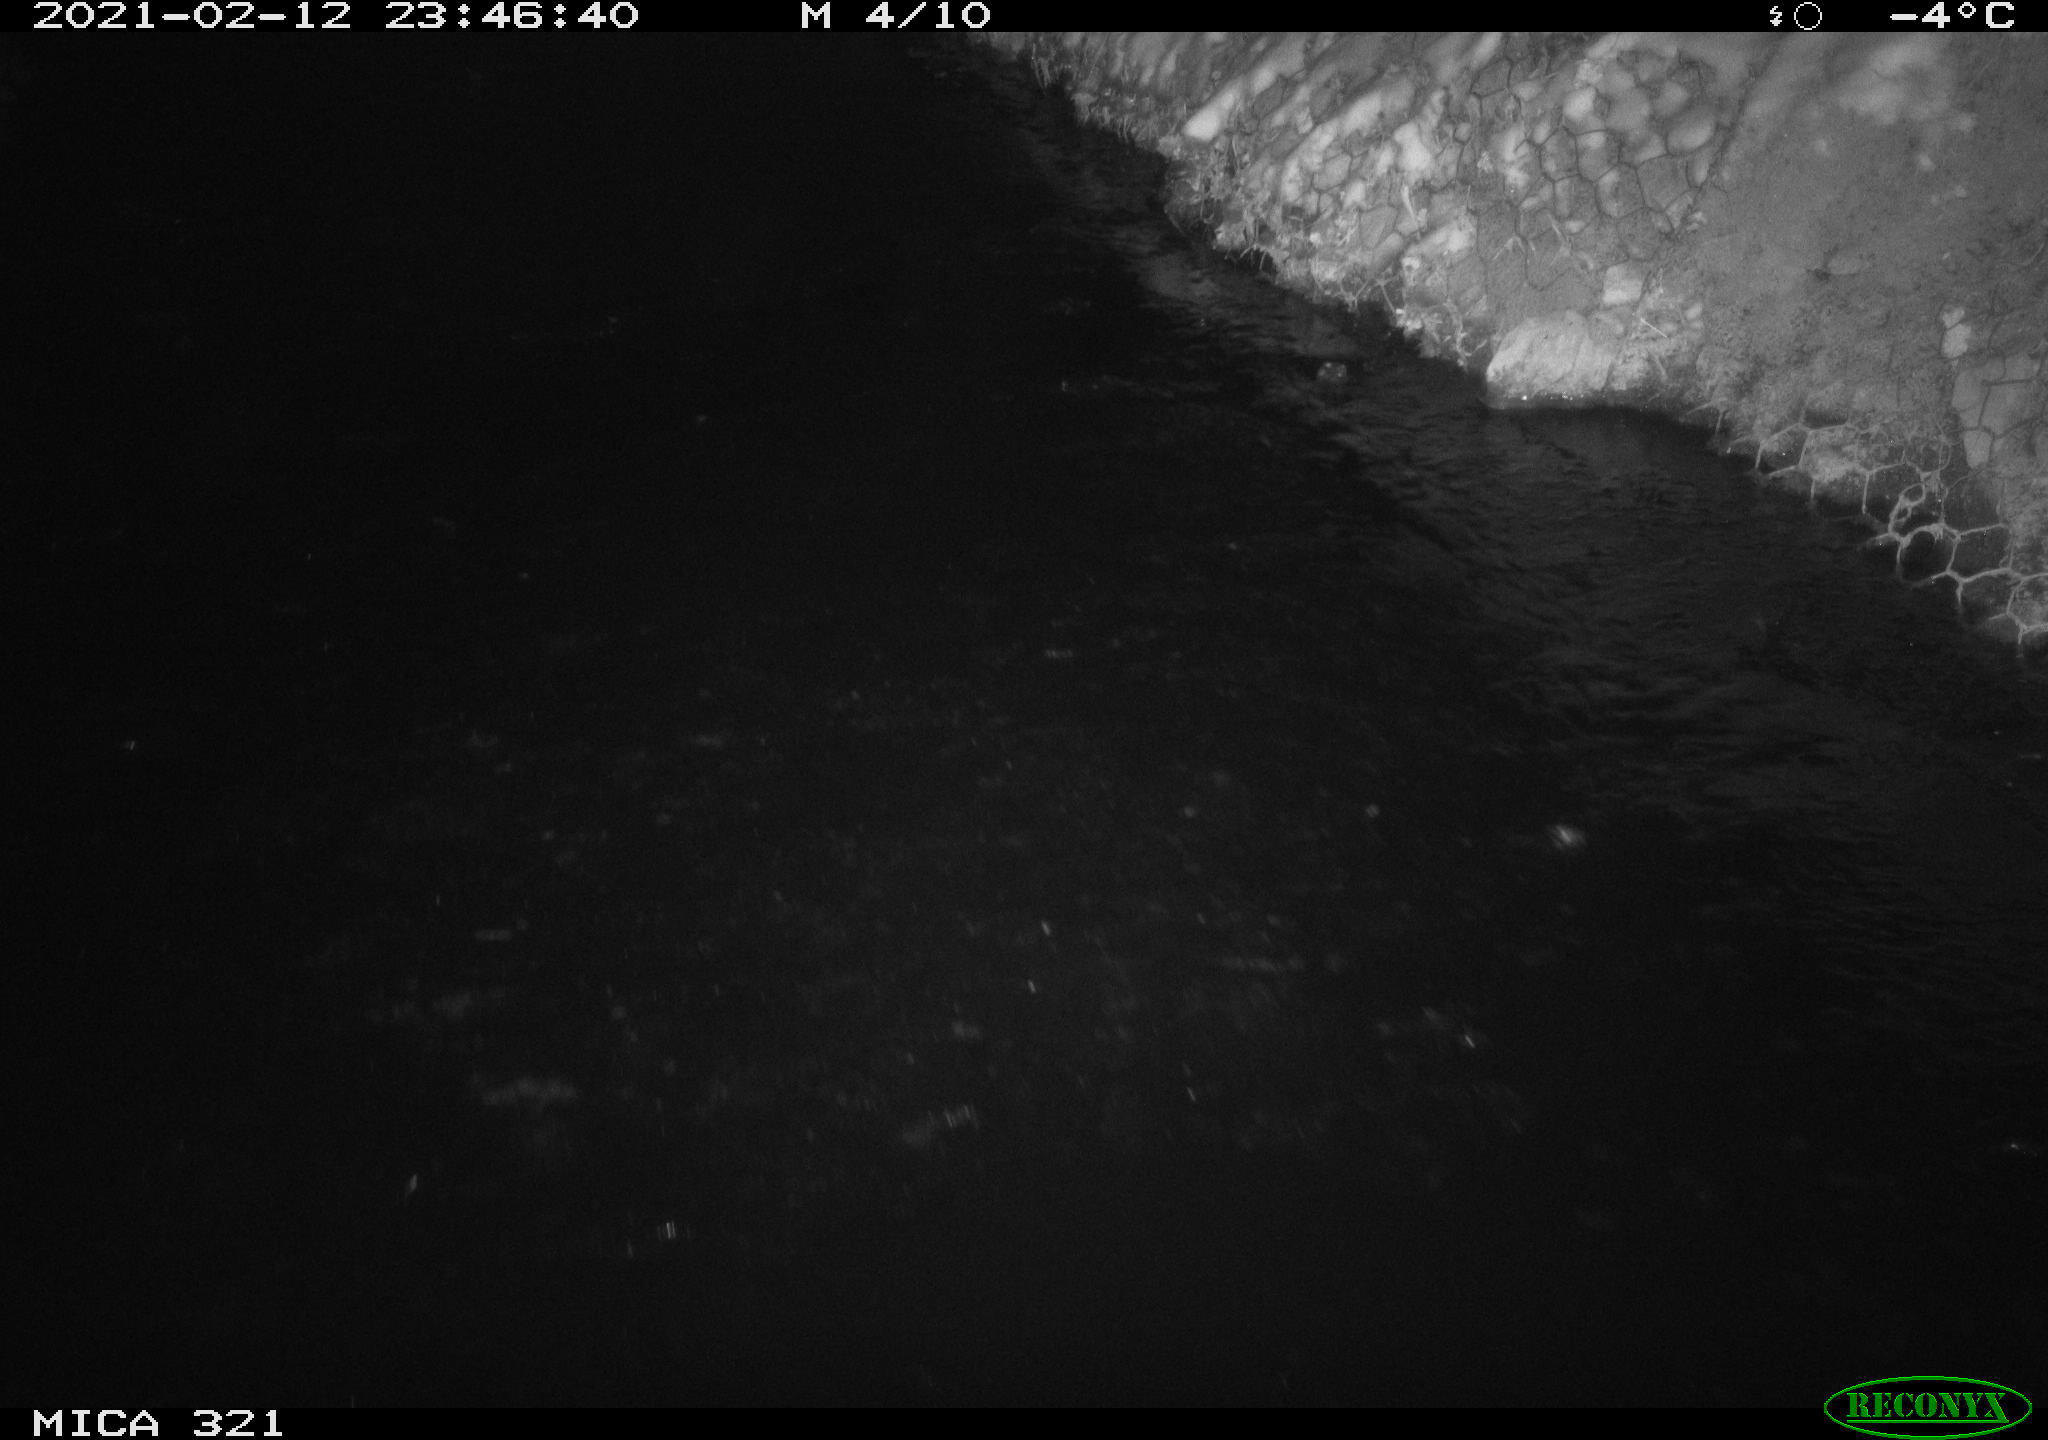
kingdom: Animalia
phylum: Chordata
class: Aves
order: Anseriformes
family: Anatidae
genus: Anas
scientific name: Anas platyrhynchos
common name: Mallard
